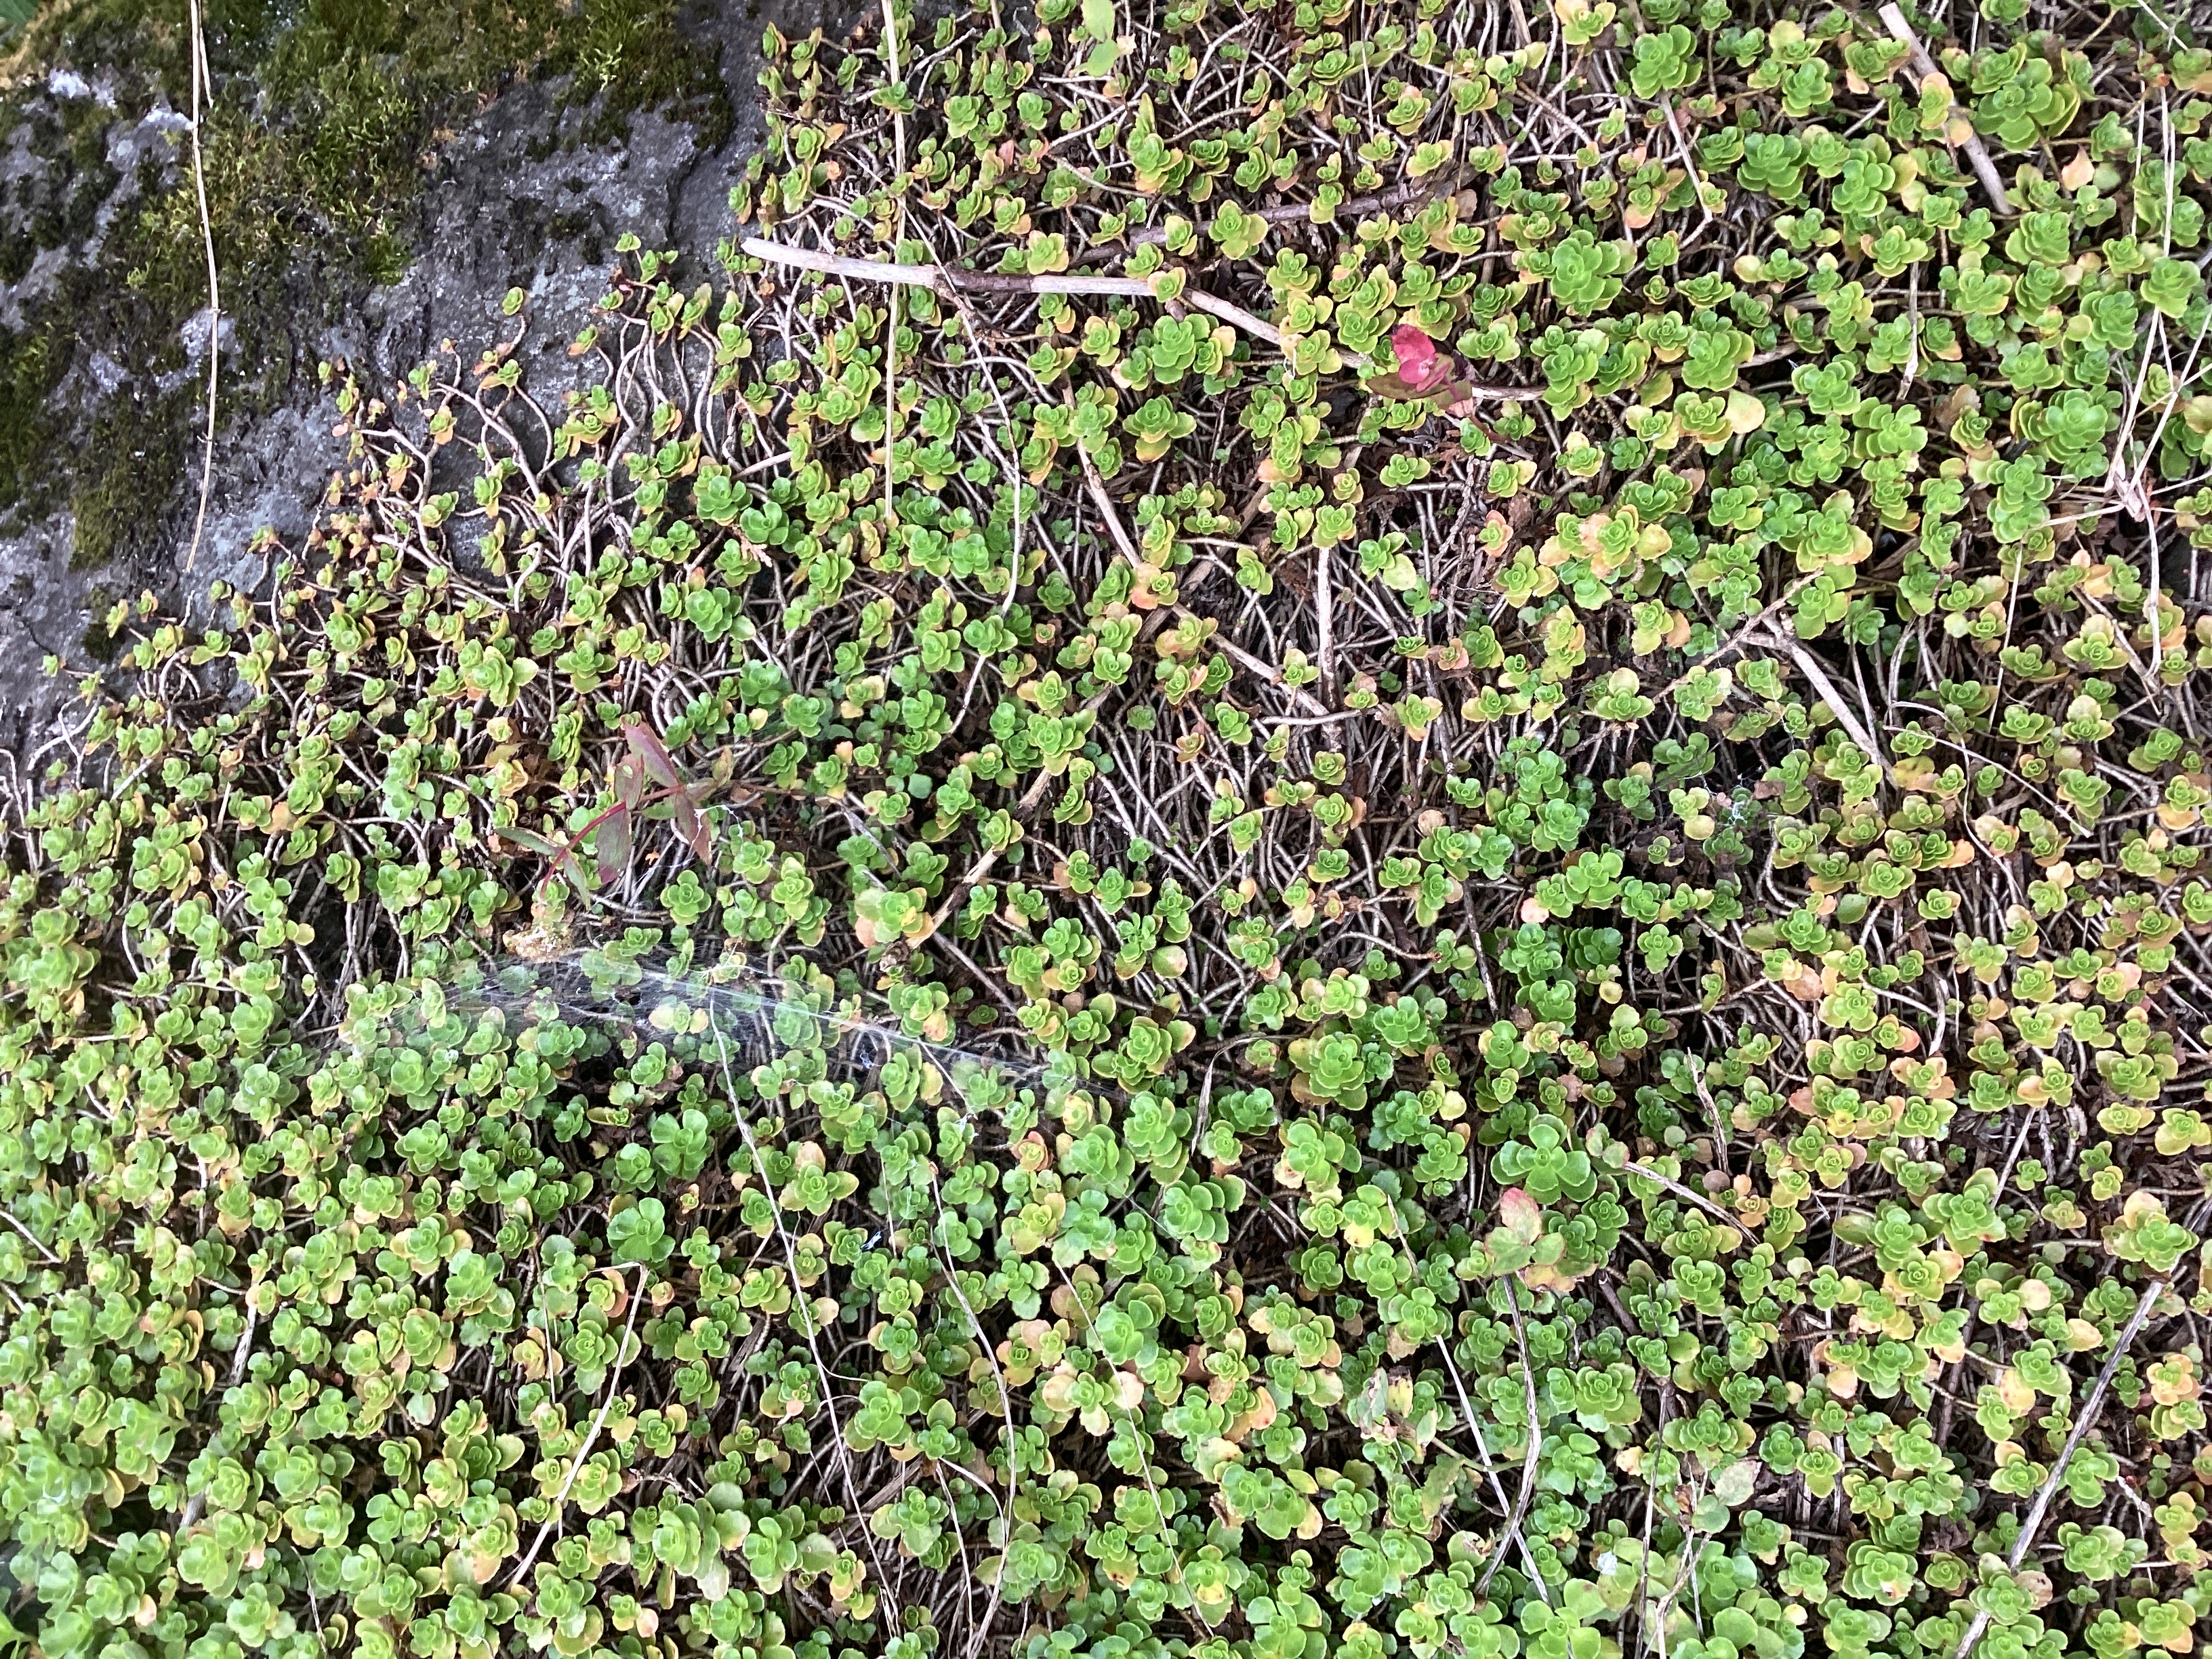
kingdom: Plantae
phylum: Tracheophyta
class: Magnoliopsida
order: Saxifragales
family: Crassulaceae
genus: Phedimus
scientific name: Phedimus spurius
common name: gravbergknapp
